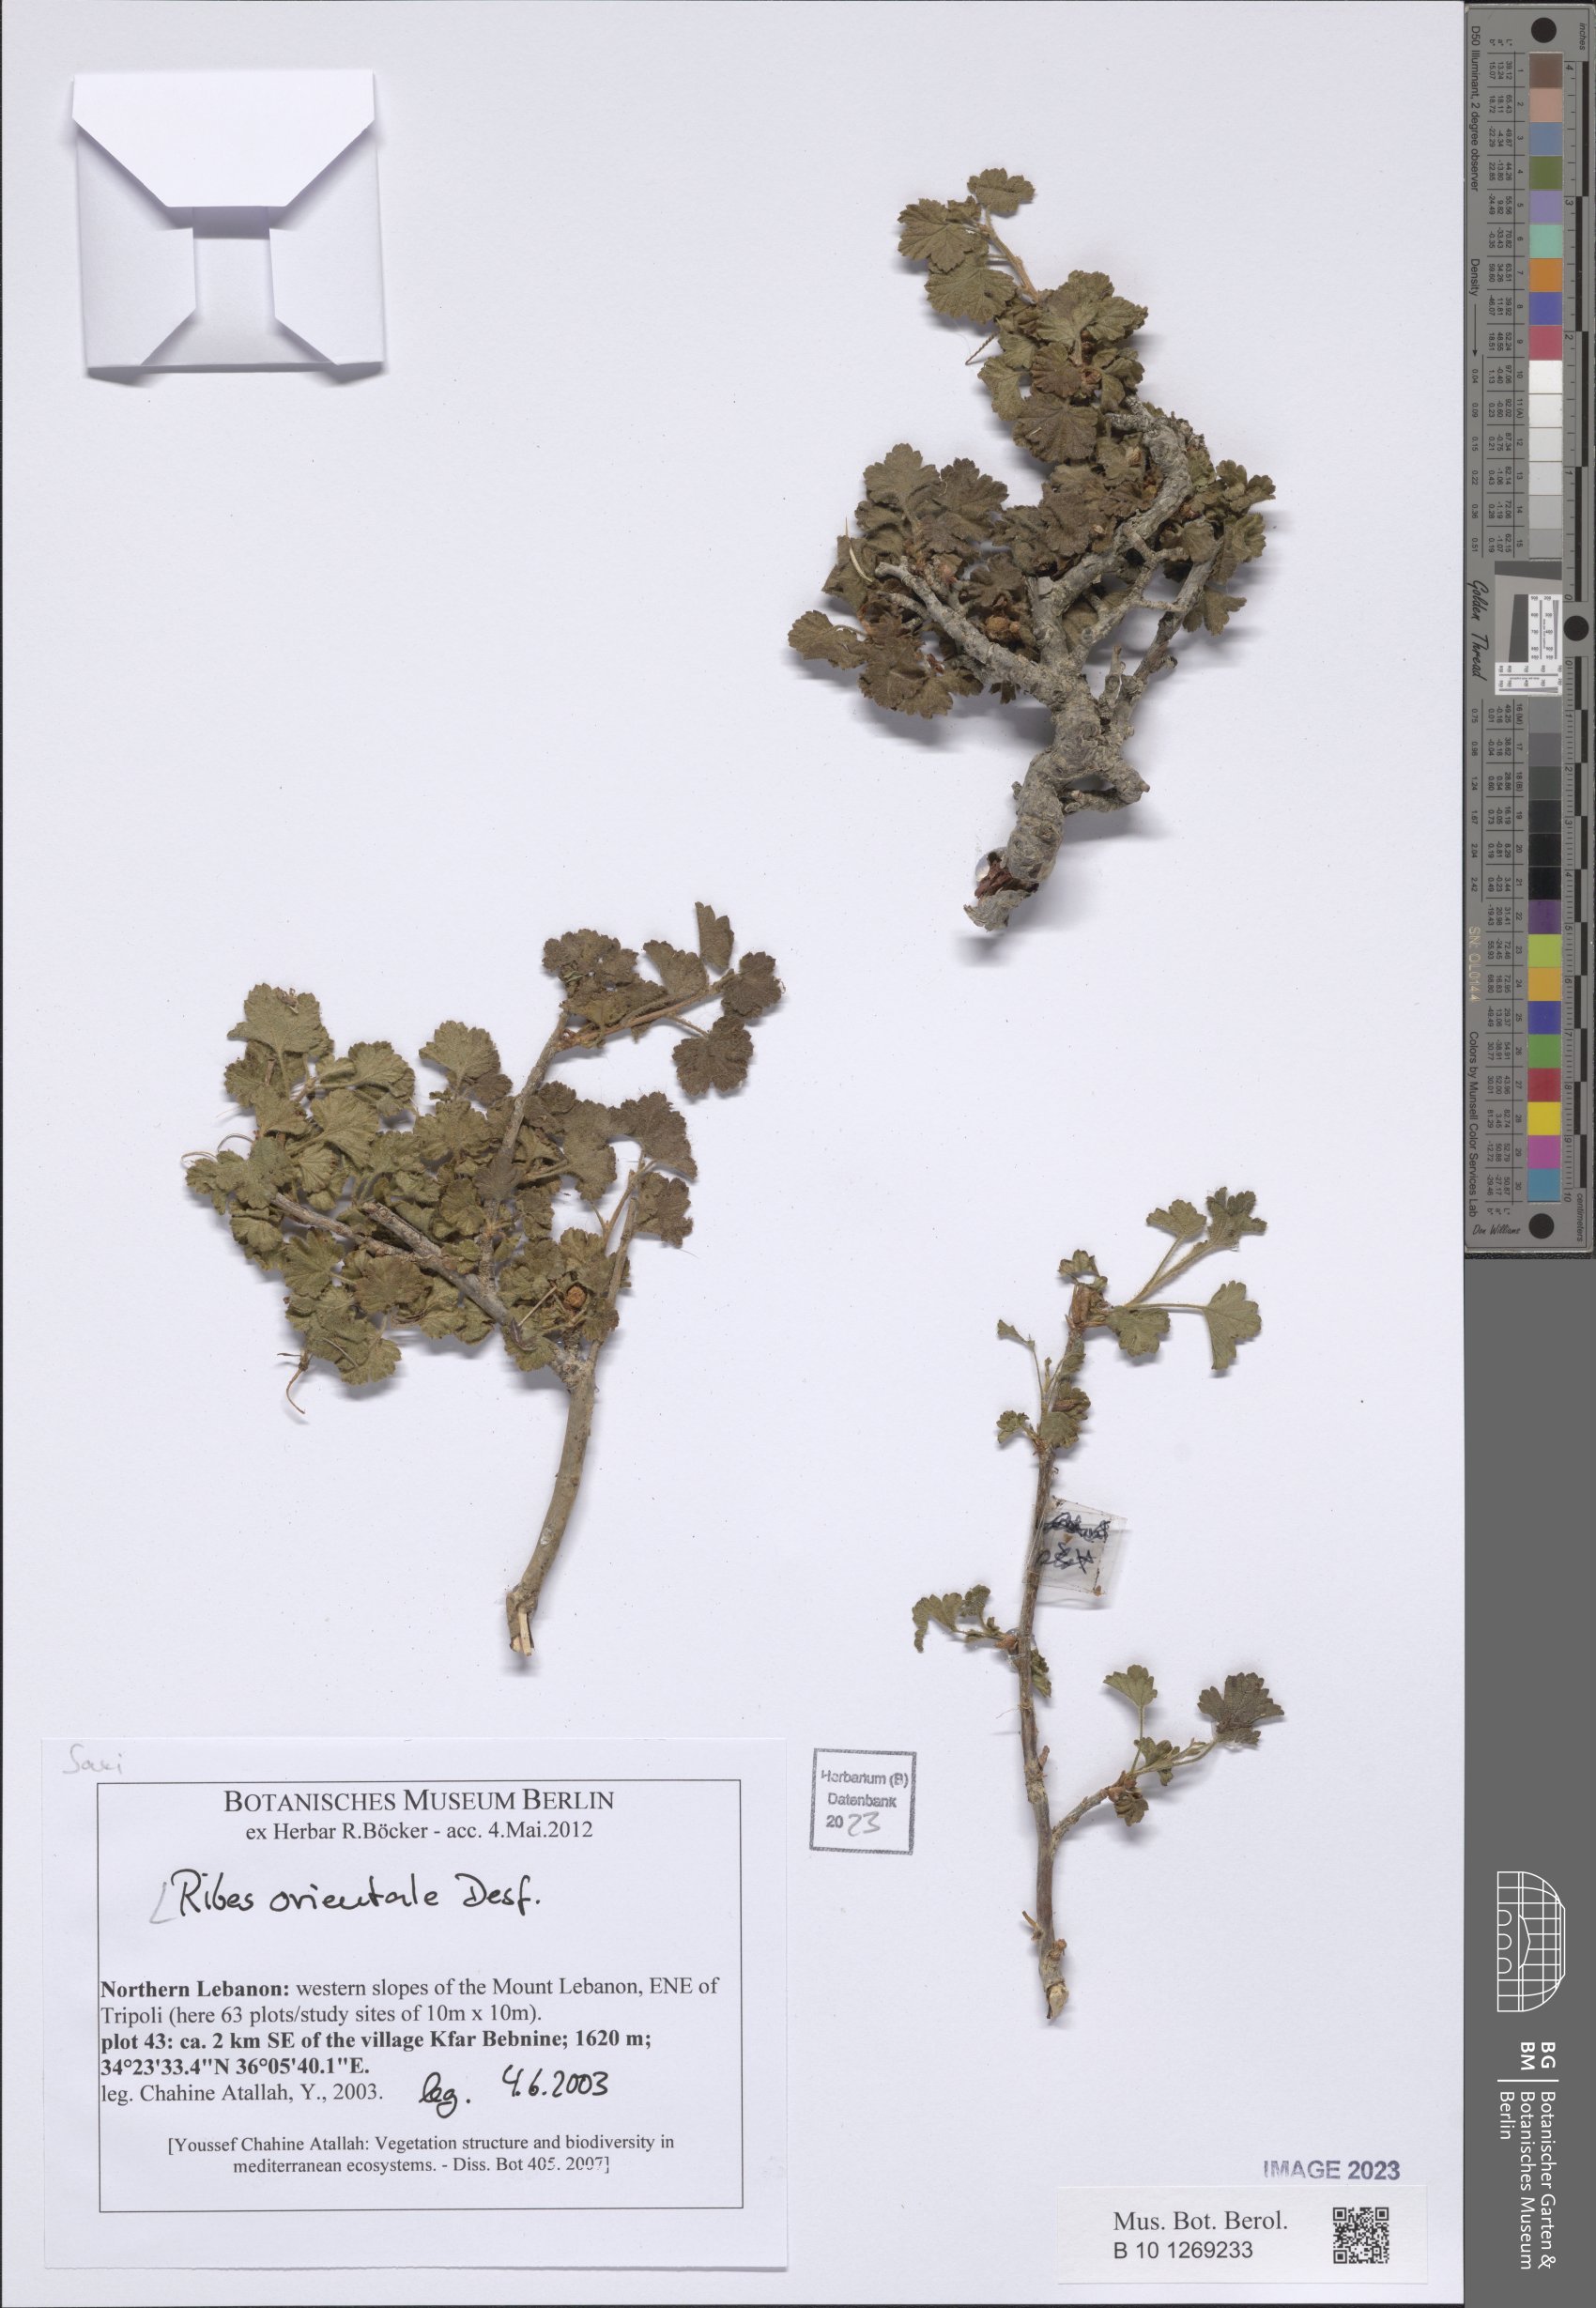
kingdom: Plantae
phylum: Tracheophyta
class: Magnoliopsida
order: Saxifragales
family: Grossulariaceae
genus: Ribes
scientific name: Ribes orientale
